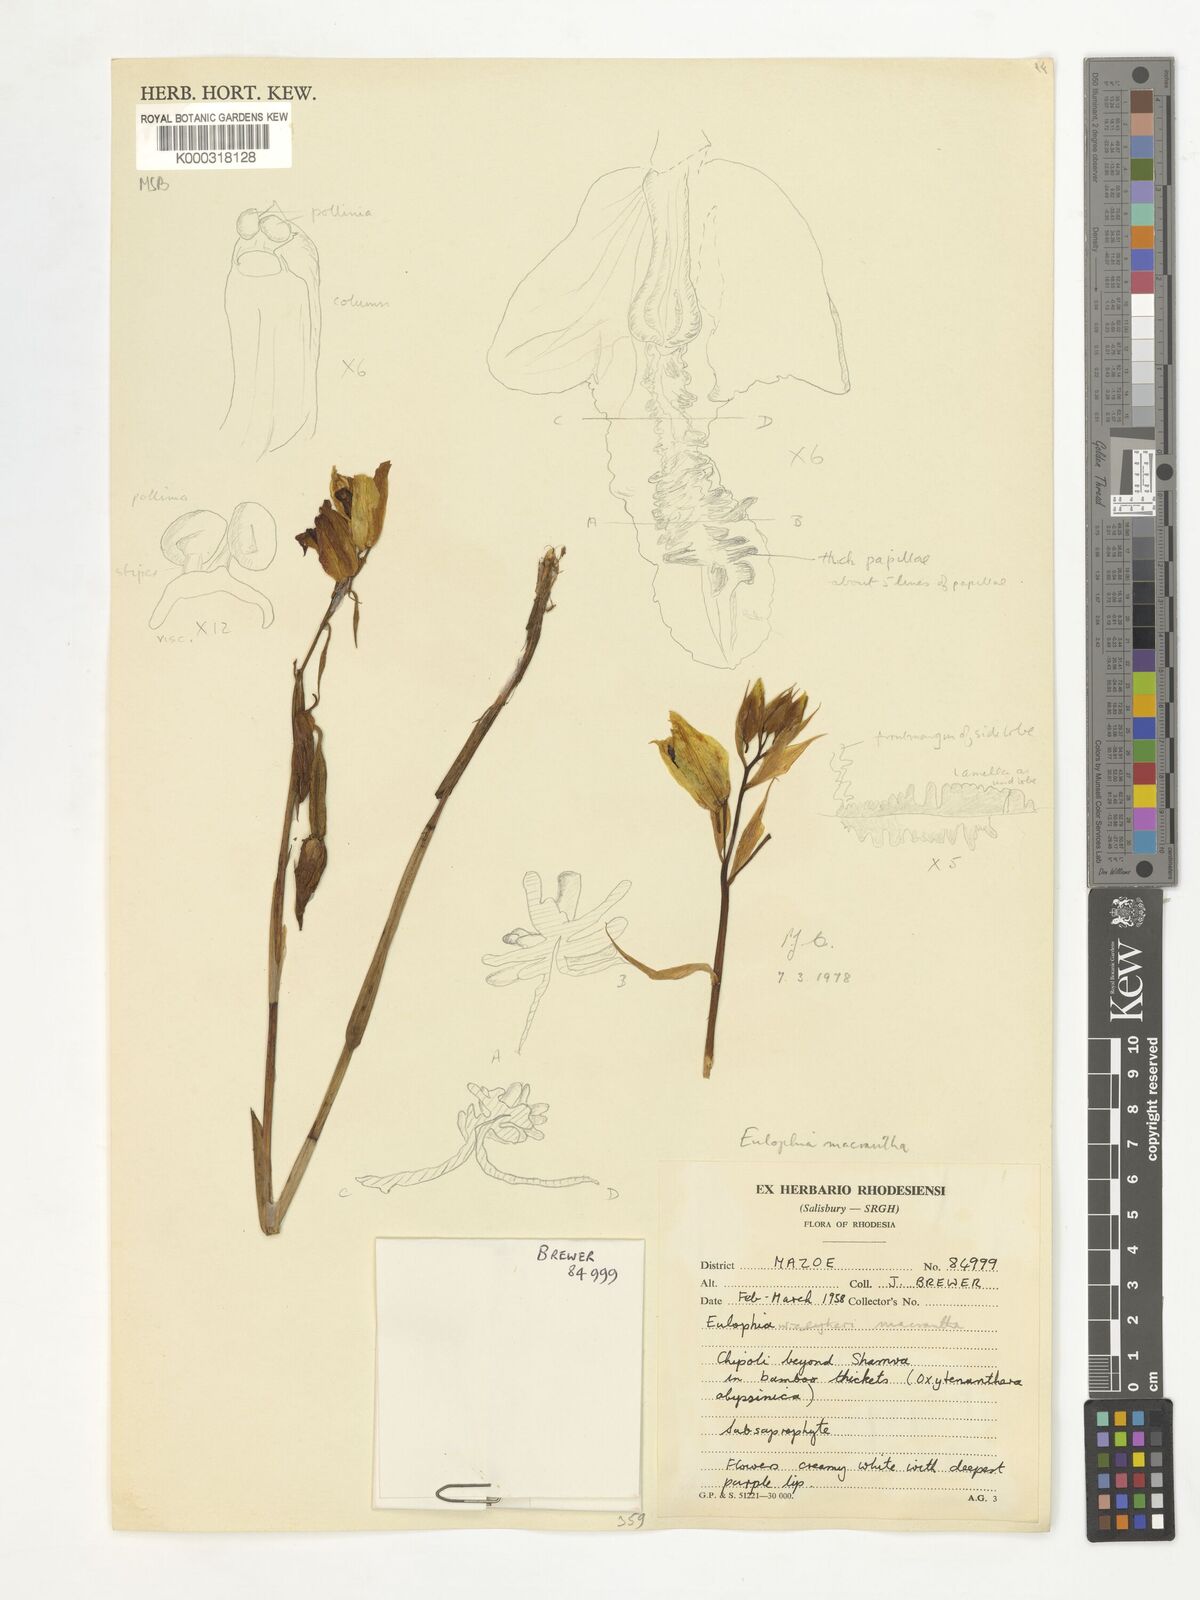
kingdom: Plantae
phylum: Tracheophyta
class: Liliopsida
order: Asparagales
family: Orchidaceae
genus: Eulophia
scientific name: Eulophia macrantha
